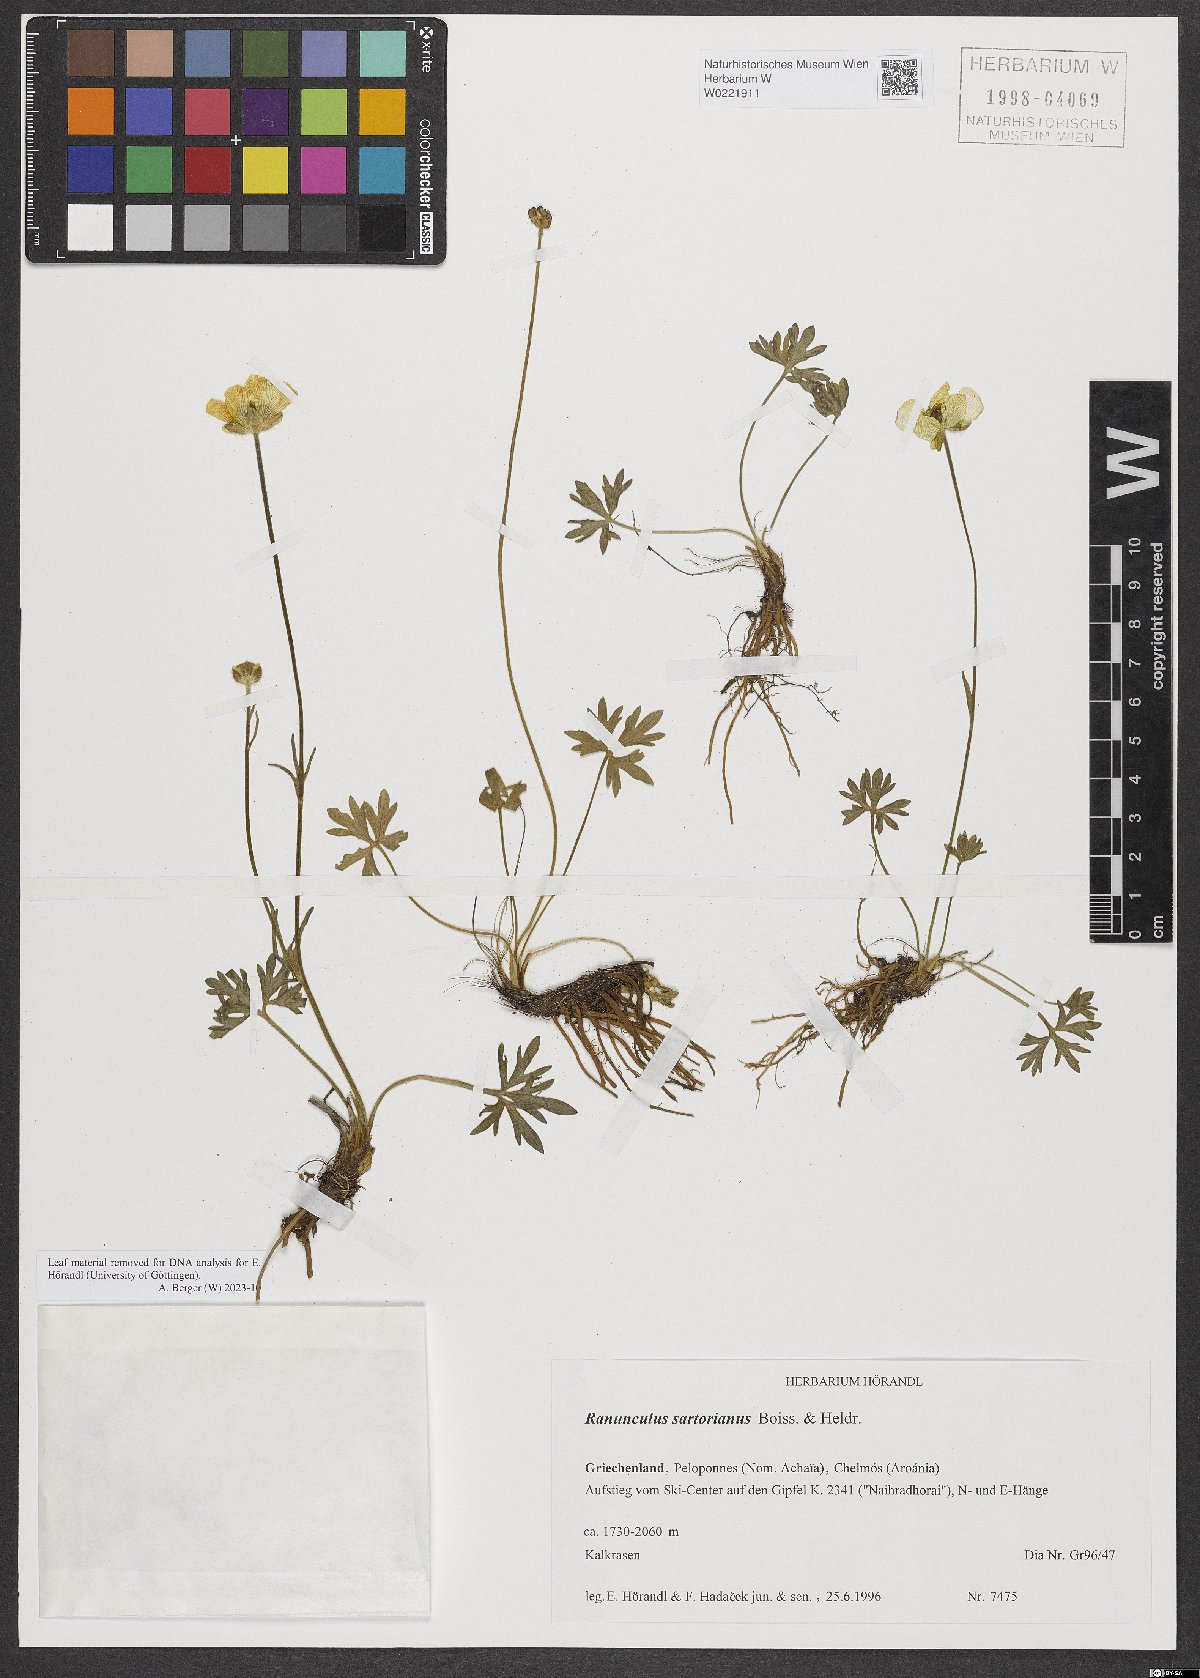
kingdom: Plantae
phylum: Tracheophyta
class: Magnoliopsida
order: Ranunculales
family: Ranunculaceae
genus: Ranunculus
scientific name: Ranunculus sartorianus
